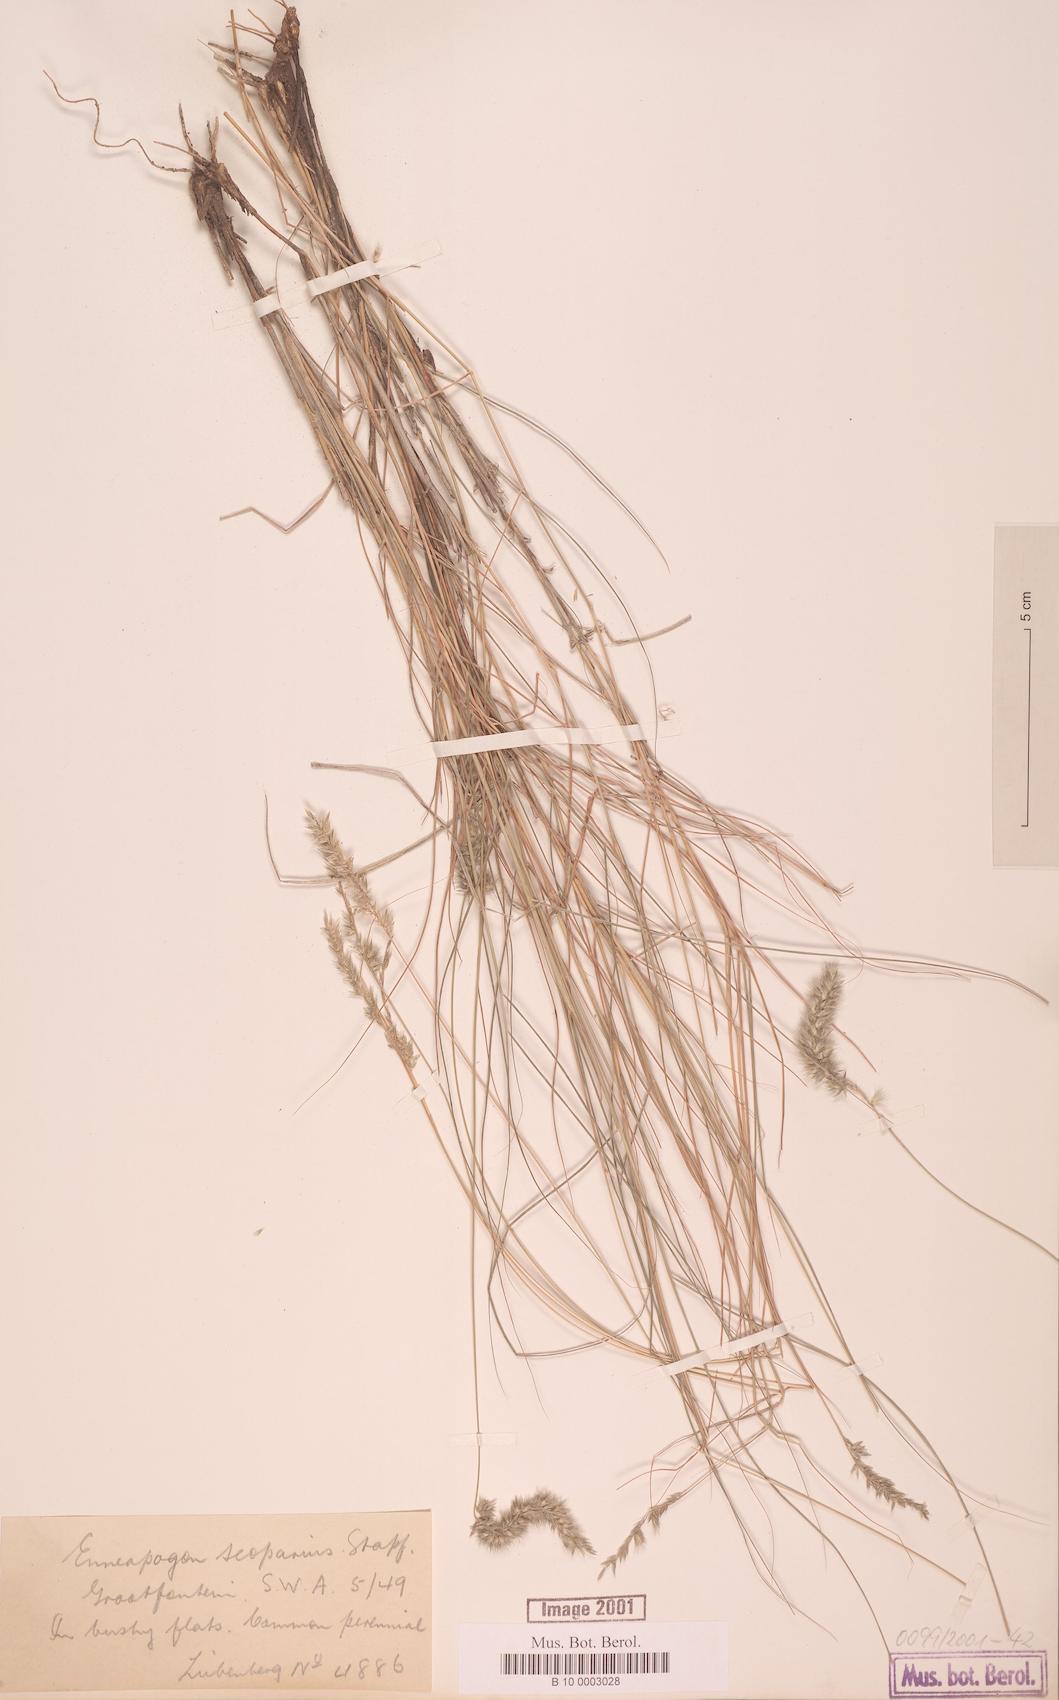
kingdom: Plantae
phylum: Tracheophyta
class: Liliopsida
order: Poales
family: Poaceae
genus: Enneapogon
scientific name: Enneapogon scoparius
